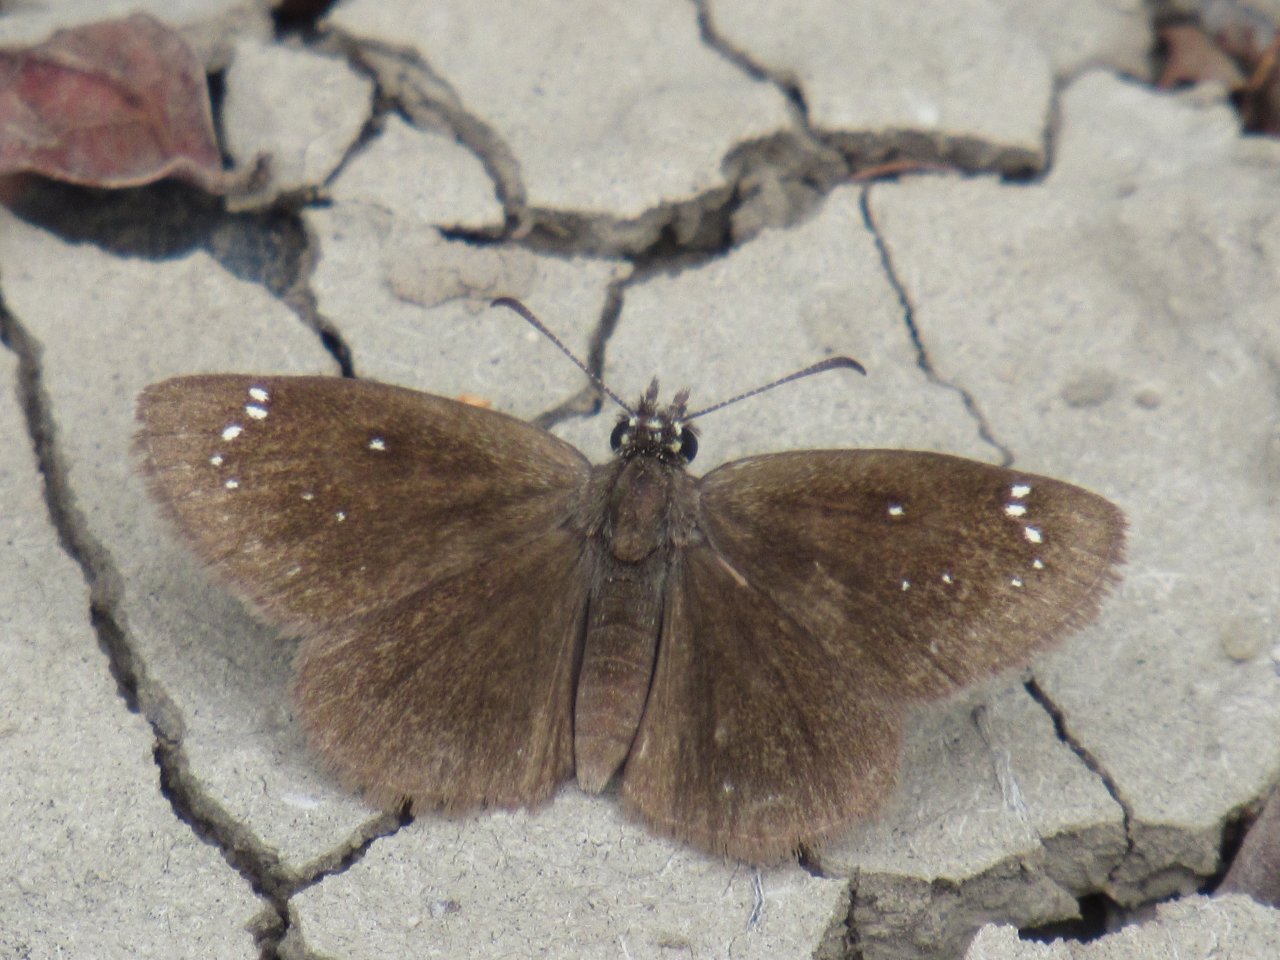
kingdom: Animalia
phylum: Arthropoda
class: Insecta
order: Lepidoptera
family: Hesperiidae
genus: Pholisora
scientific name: Pholisora catullus
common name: Common Sootywing
